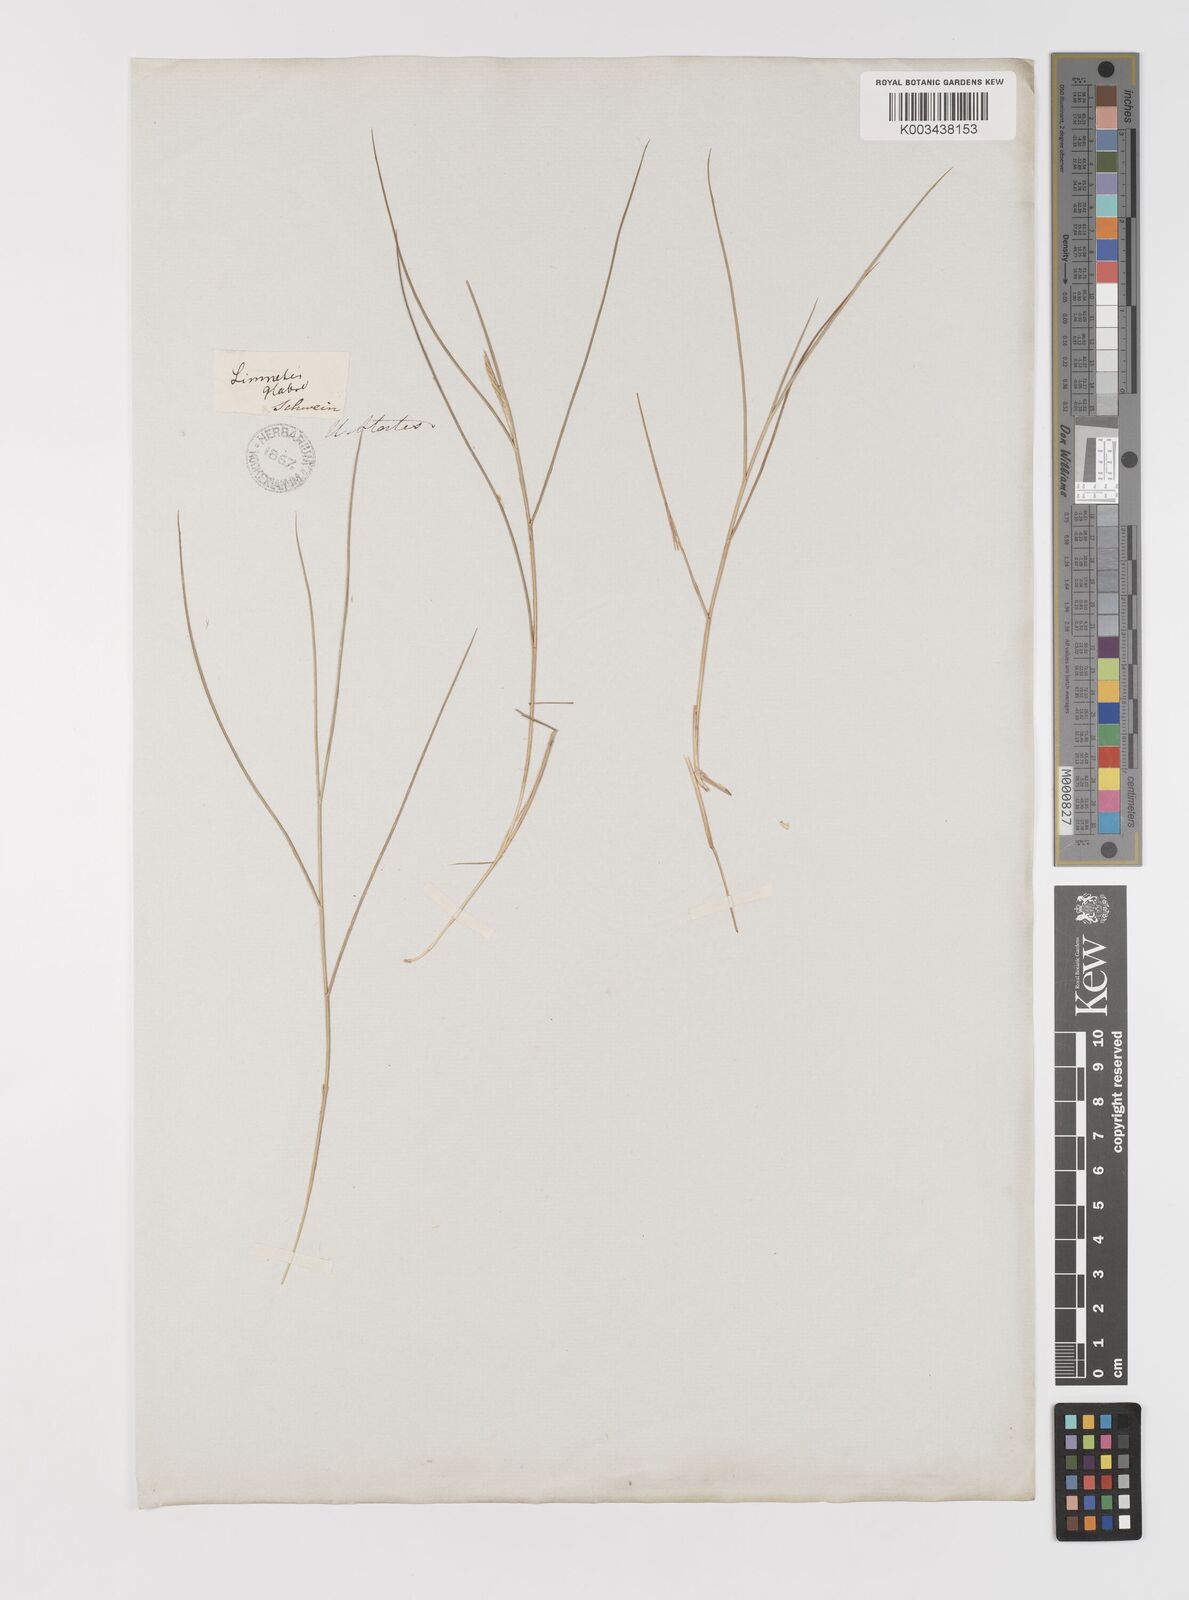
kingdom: Plantae
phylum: Tracheophyta
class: Liliopsida
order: Poales
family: Poaceae
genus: Sporobolus
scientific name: Sporobolus pumilus
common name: Highwater grass
